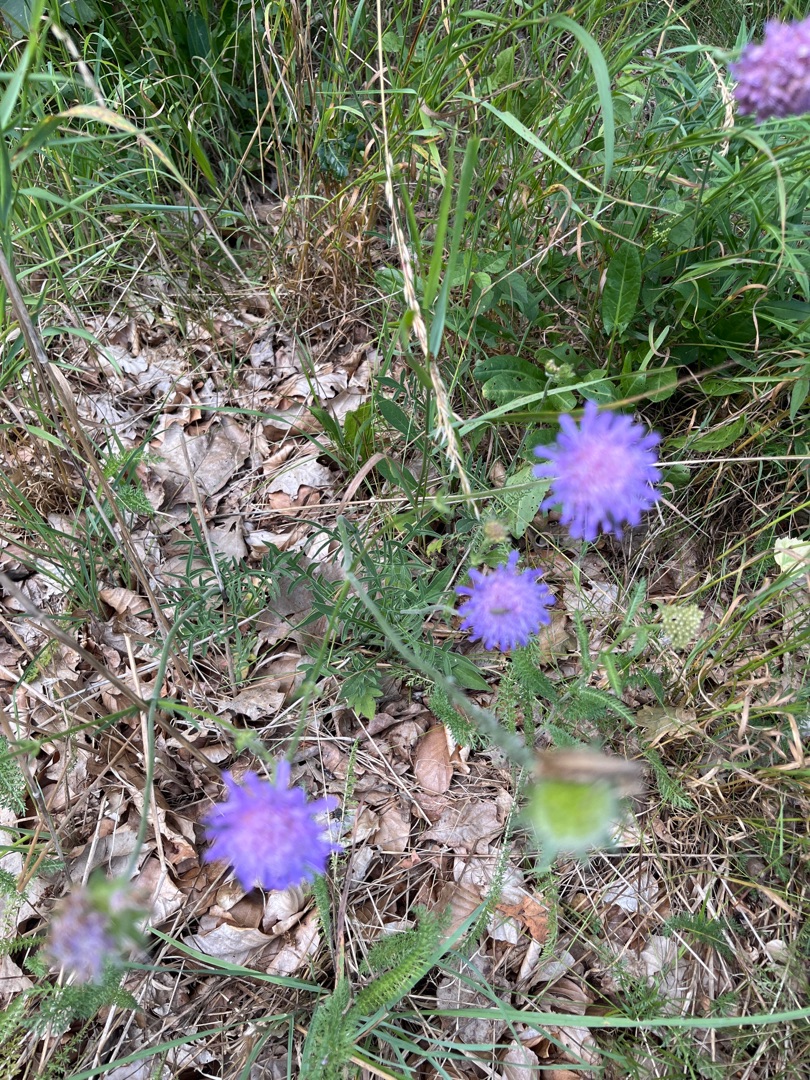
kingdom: Plantae
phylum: Tracheophyta
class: Magnoliopsida
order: Dipsacales
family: Caprifoliaceae
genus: Knautia
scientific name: Knautia arvensis
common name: Blåhat
